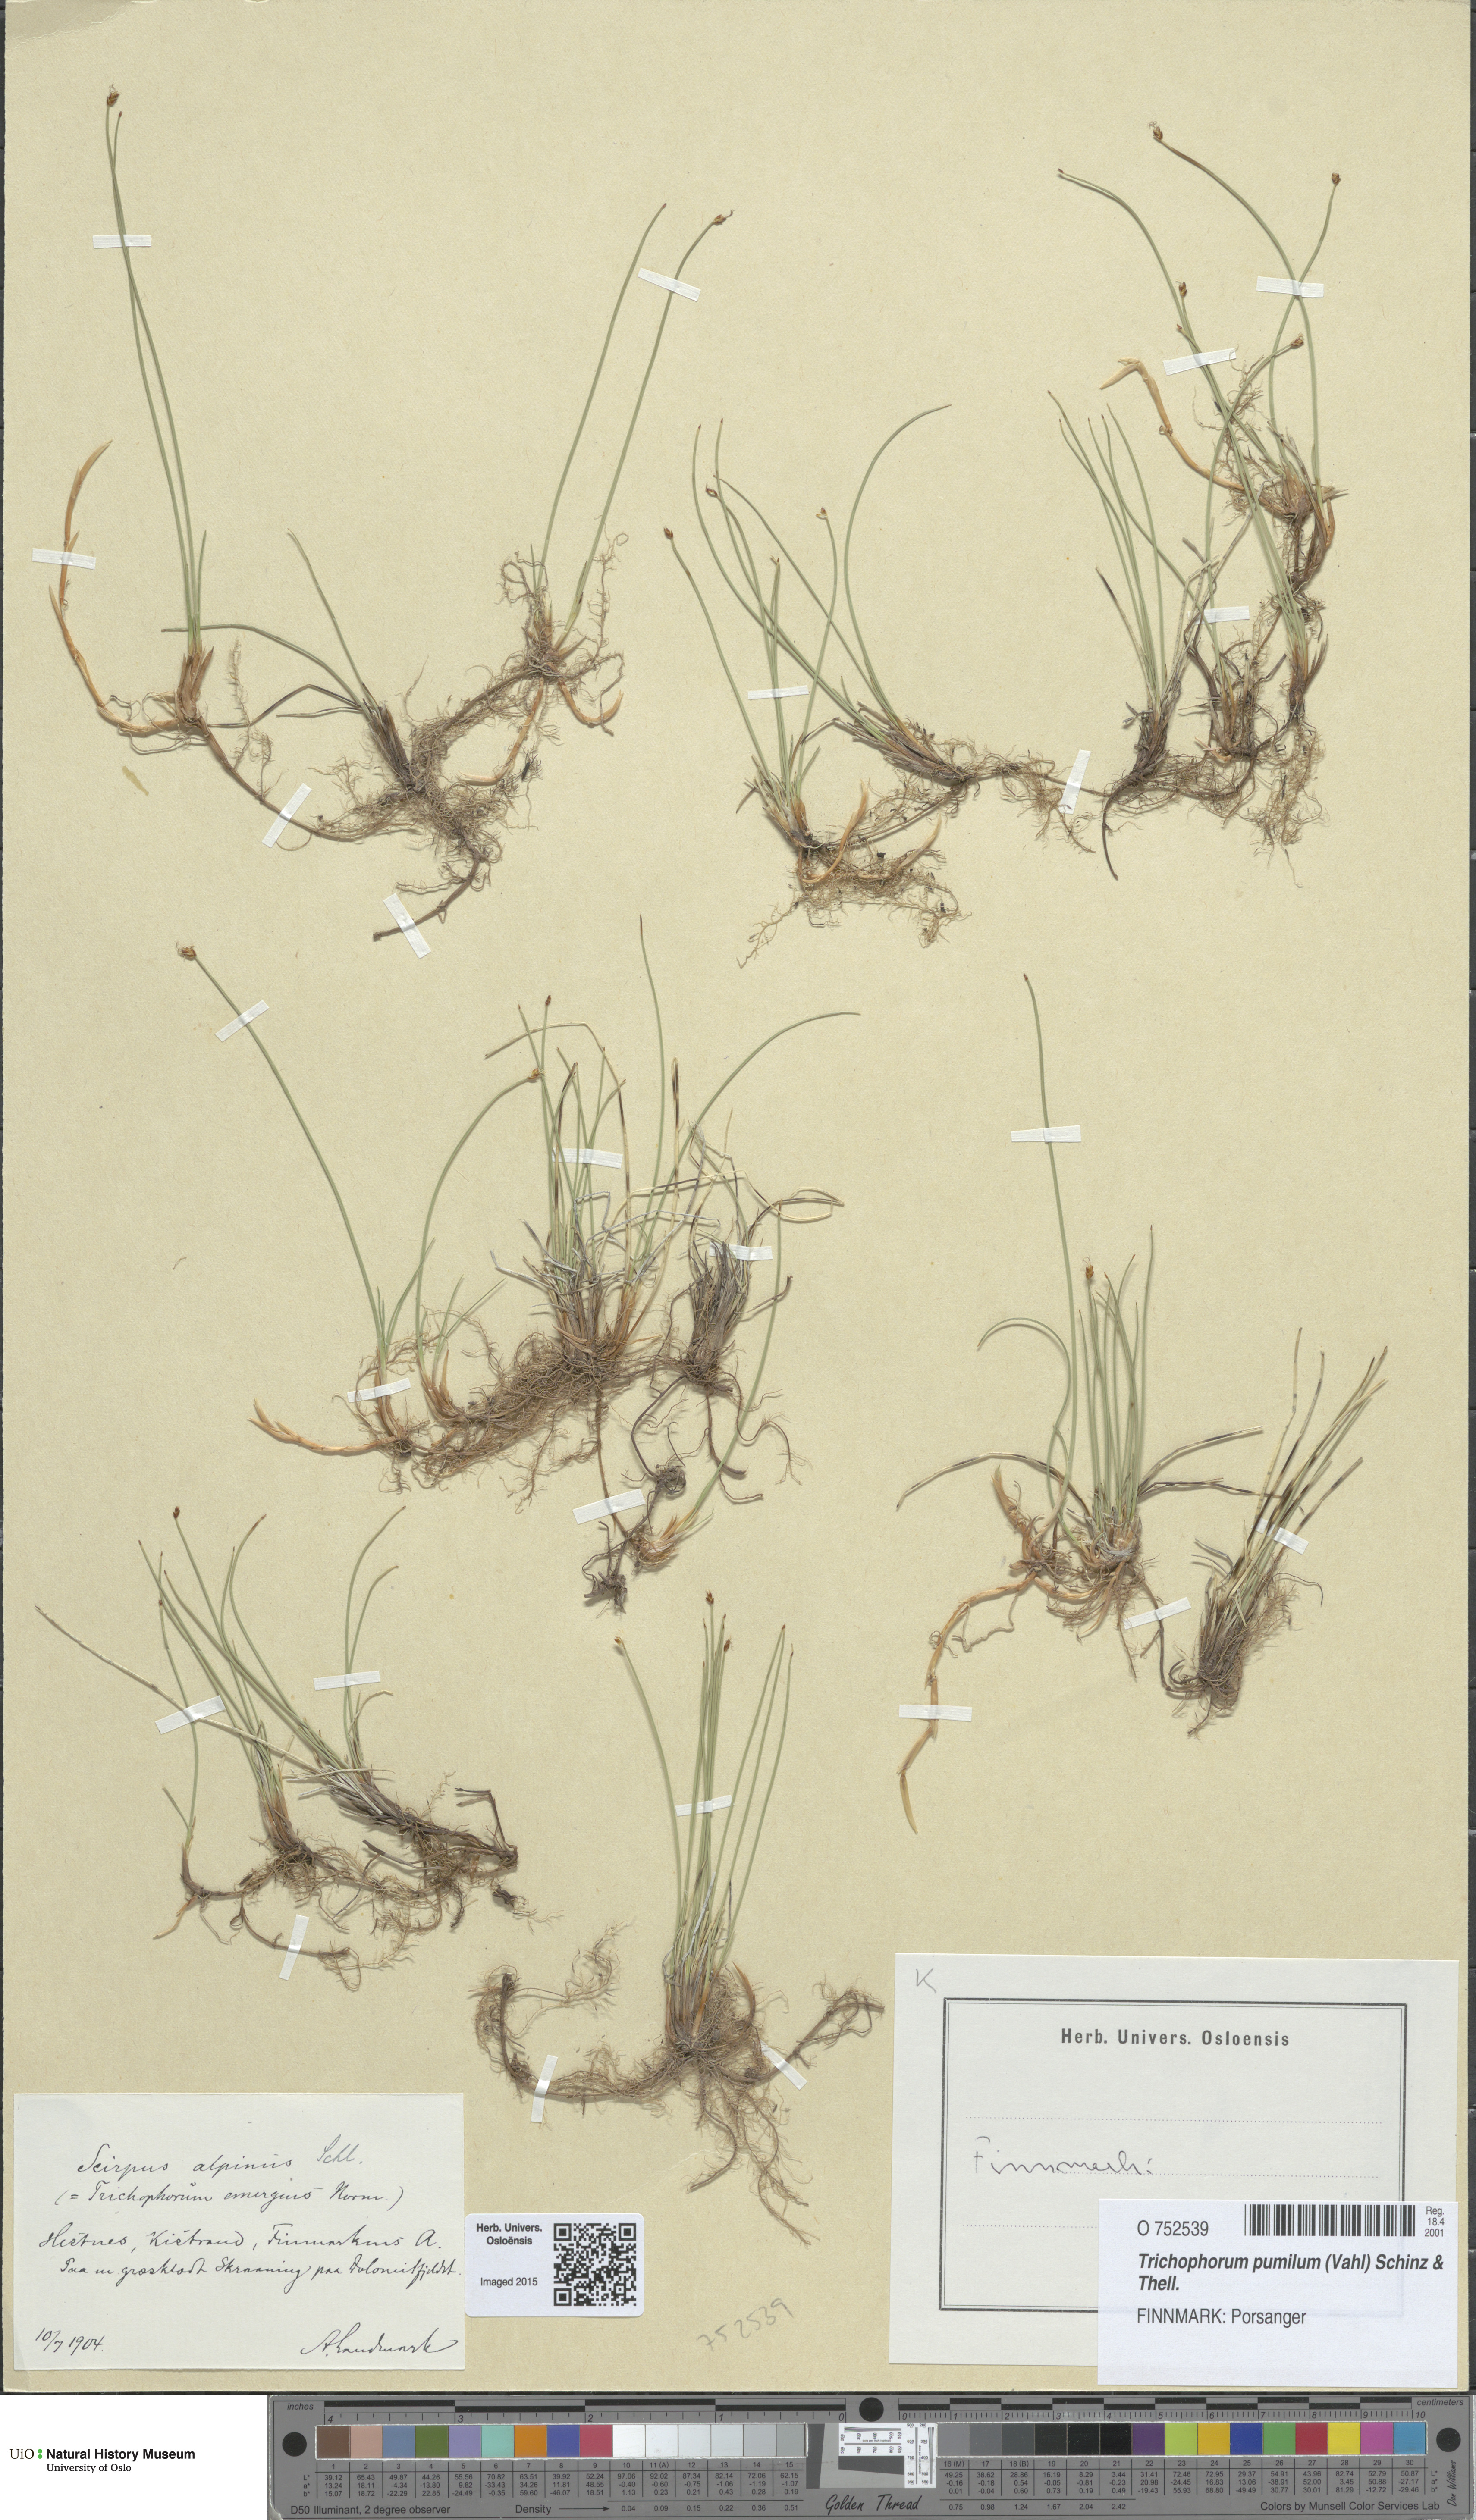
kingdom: Plantae
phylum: Tracheophyta
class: Liliopsida
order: Poales
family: Cyperaceae
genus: Trichophorum
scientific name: Trichophorum pumilum
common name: Rolland's bulrush
